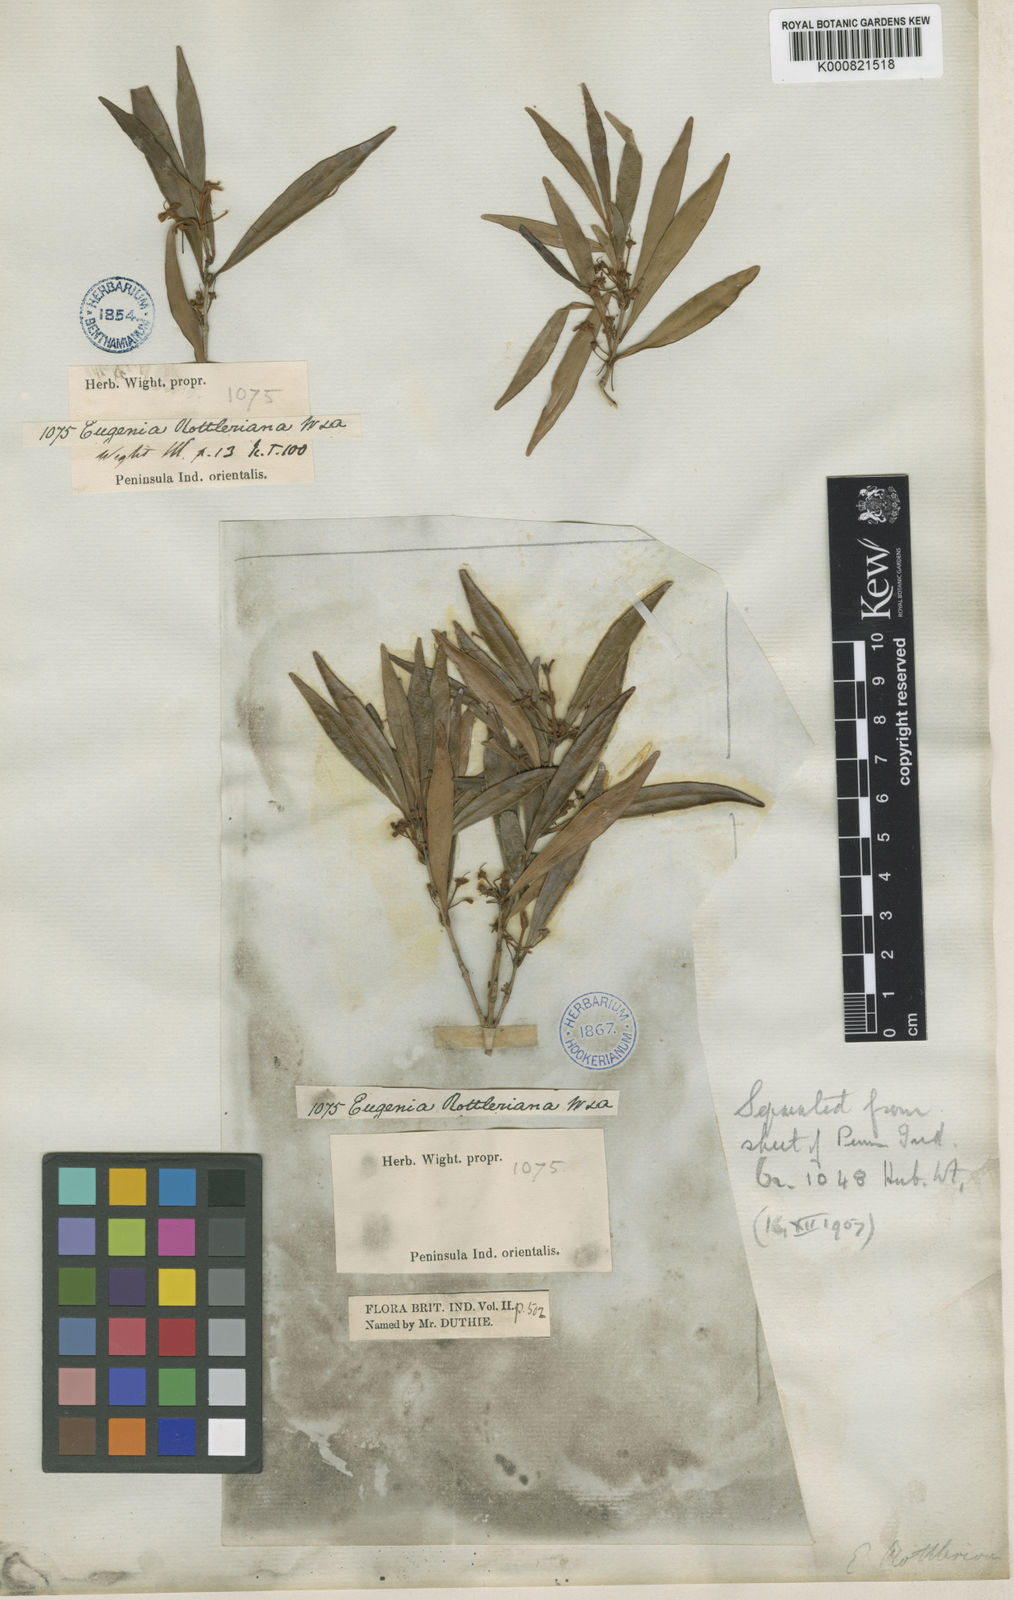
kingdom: Plantae
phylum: Tracheophyta
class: Magnoliopsida
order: Myrtales
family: Myrtaceae
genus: Eugenia
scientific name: Eugenia rottleriana
